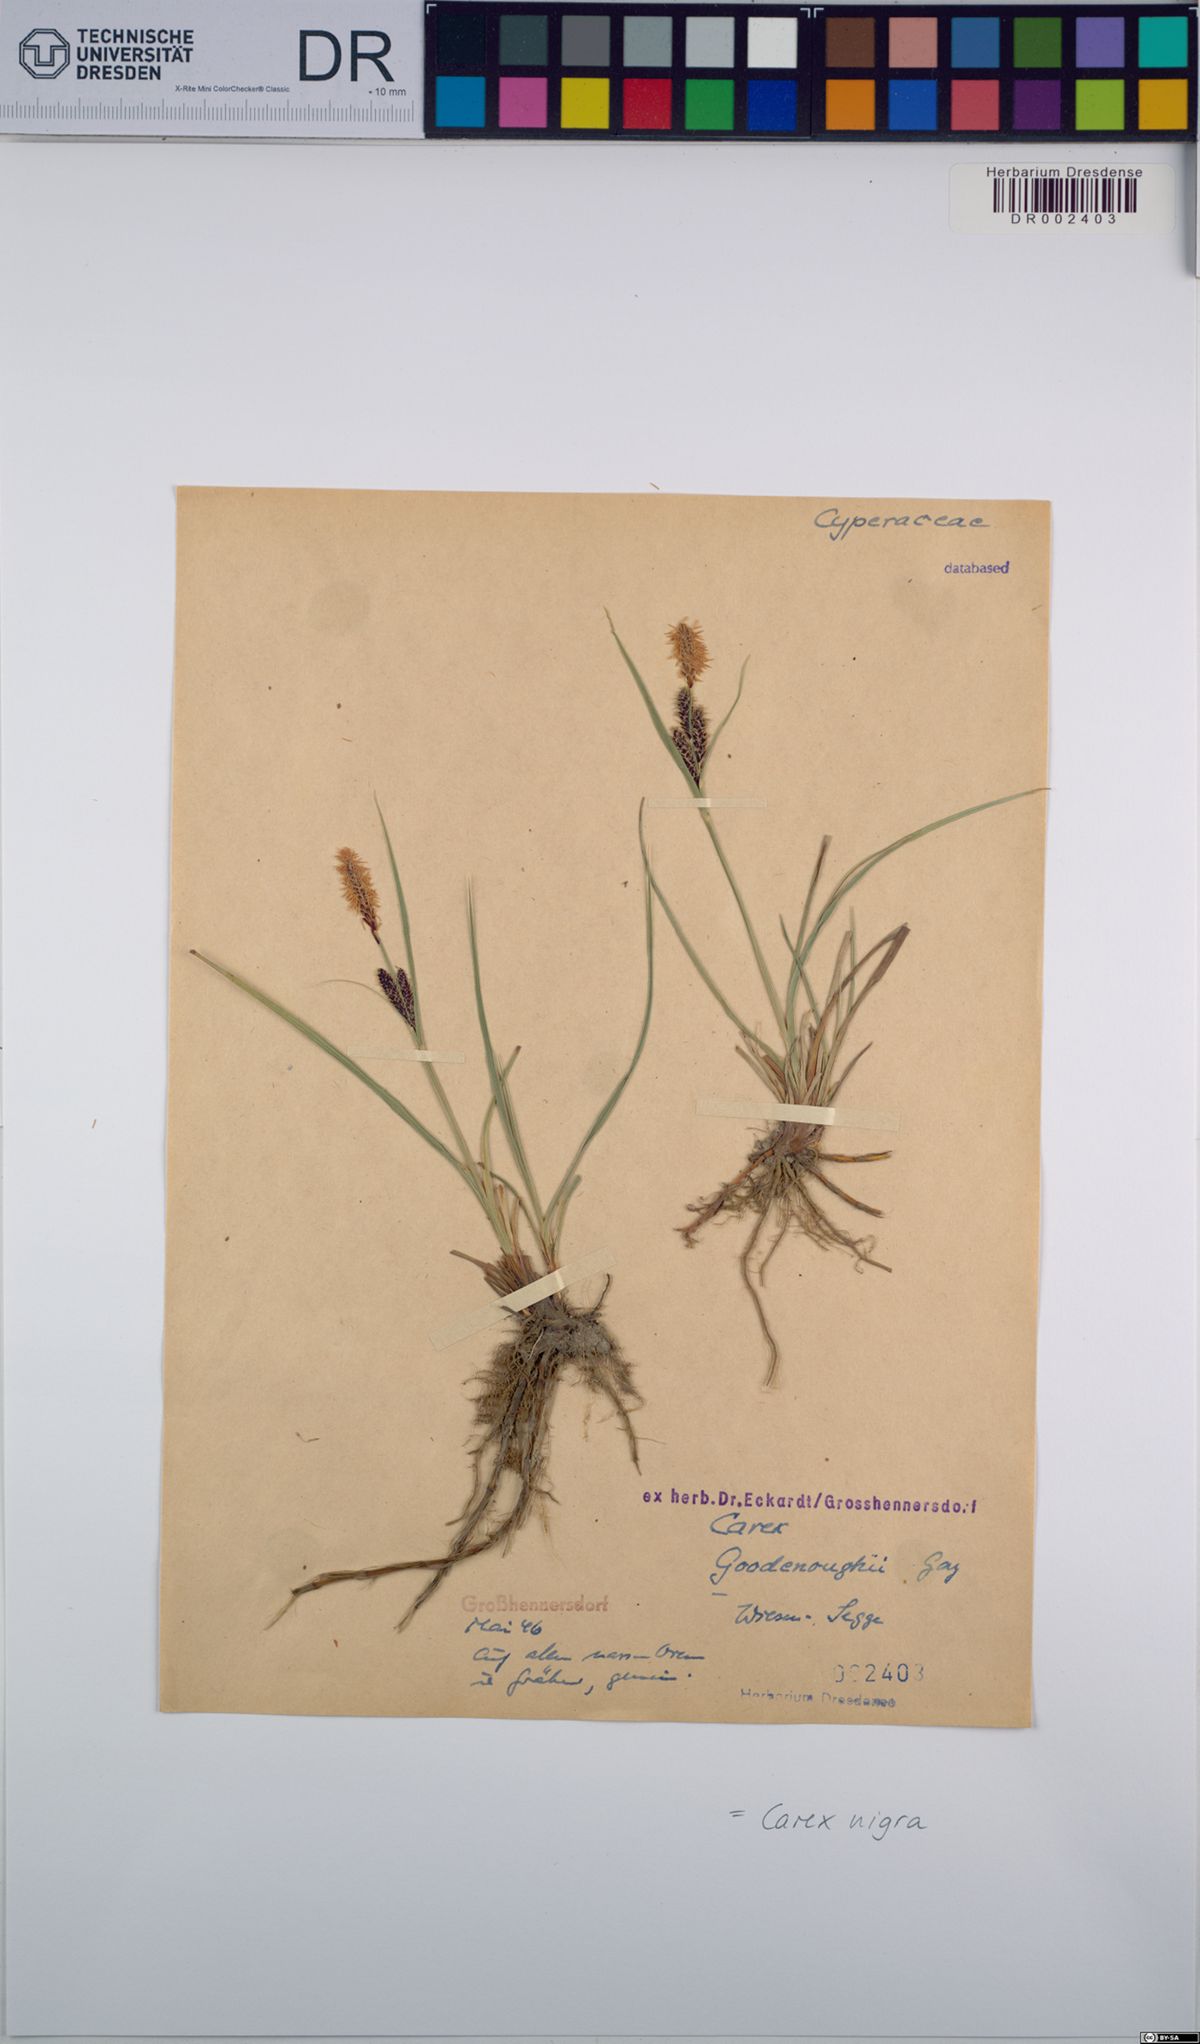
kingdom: Plantae
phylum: Tracheophyta
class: Liliopsida
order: Poales
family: Cyperaceae
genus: Carex
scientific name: Carex nigra
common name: Common sedge
